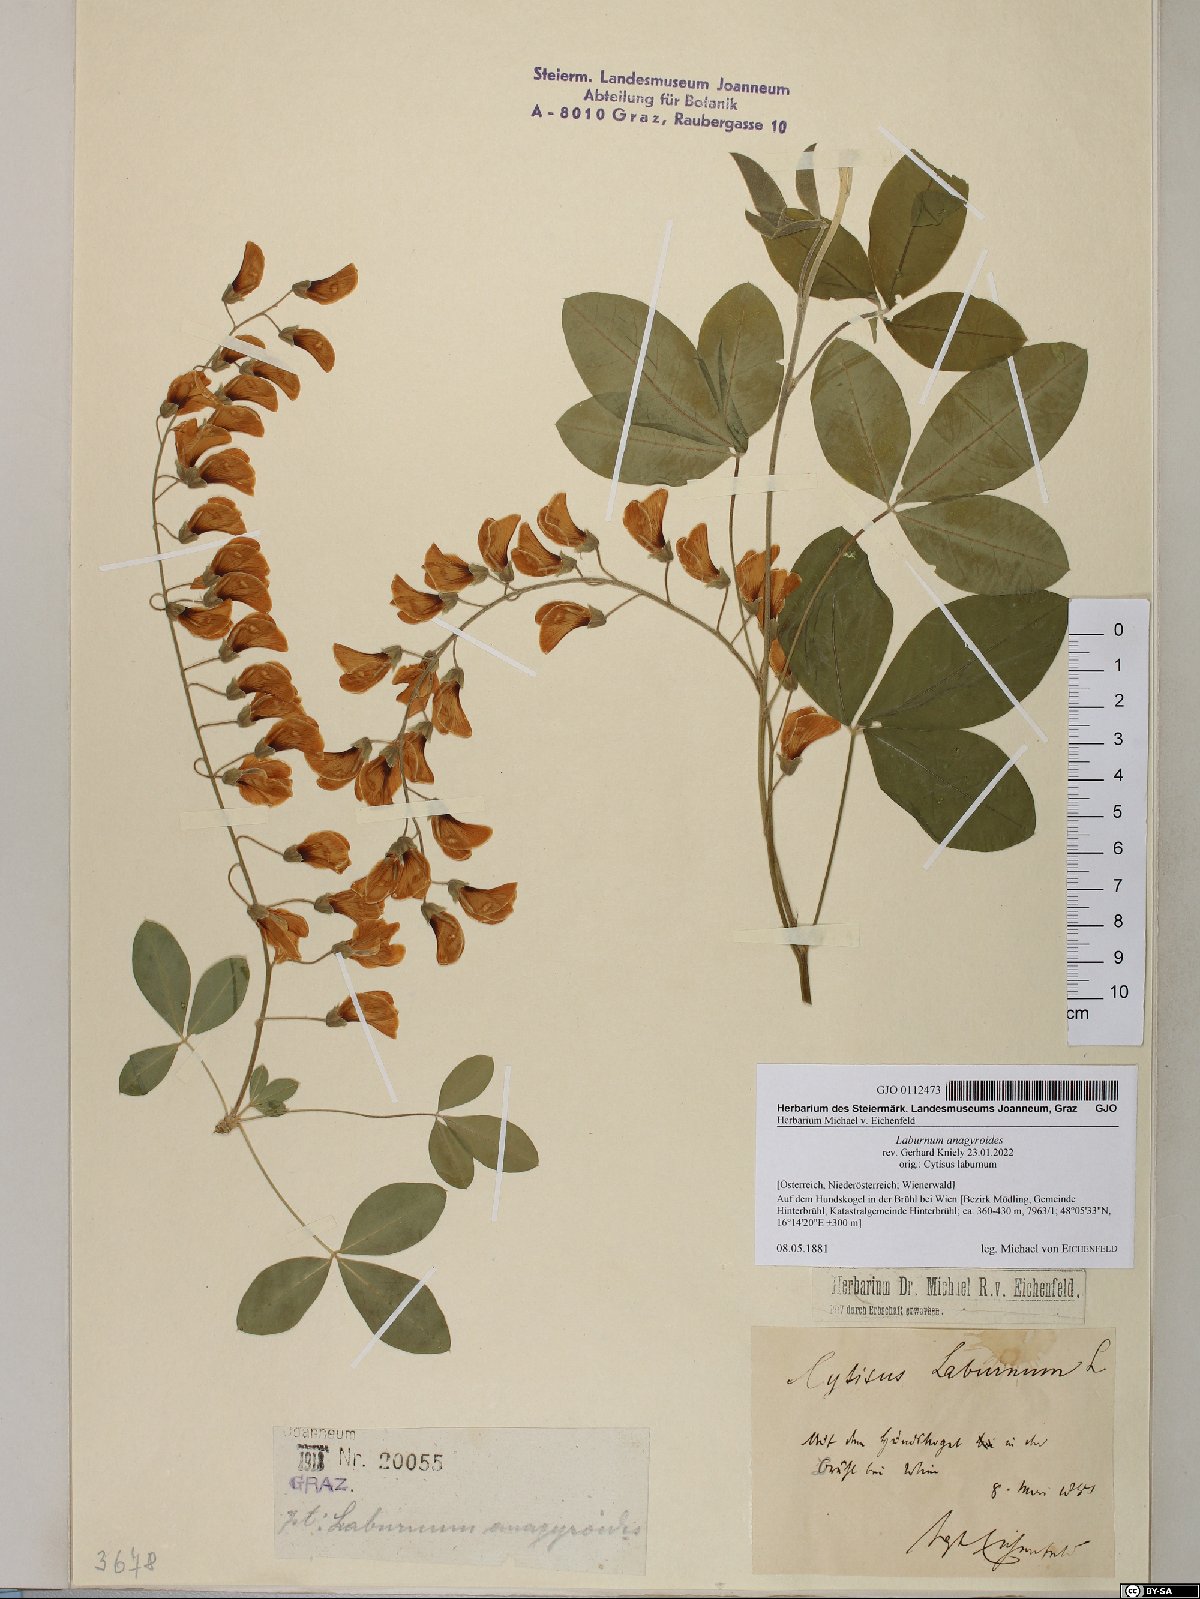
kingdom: Plantae
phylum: Tracheophyta
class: Magnoliopsida
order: Fabales
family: Fabaceae
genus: Laburnum
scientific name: Laburnum anagyroides
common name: Laburnum
